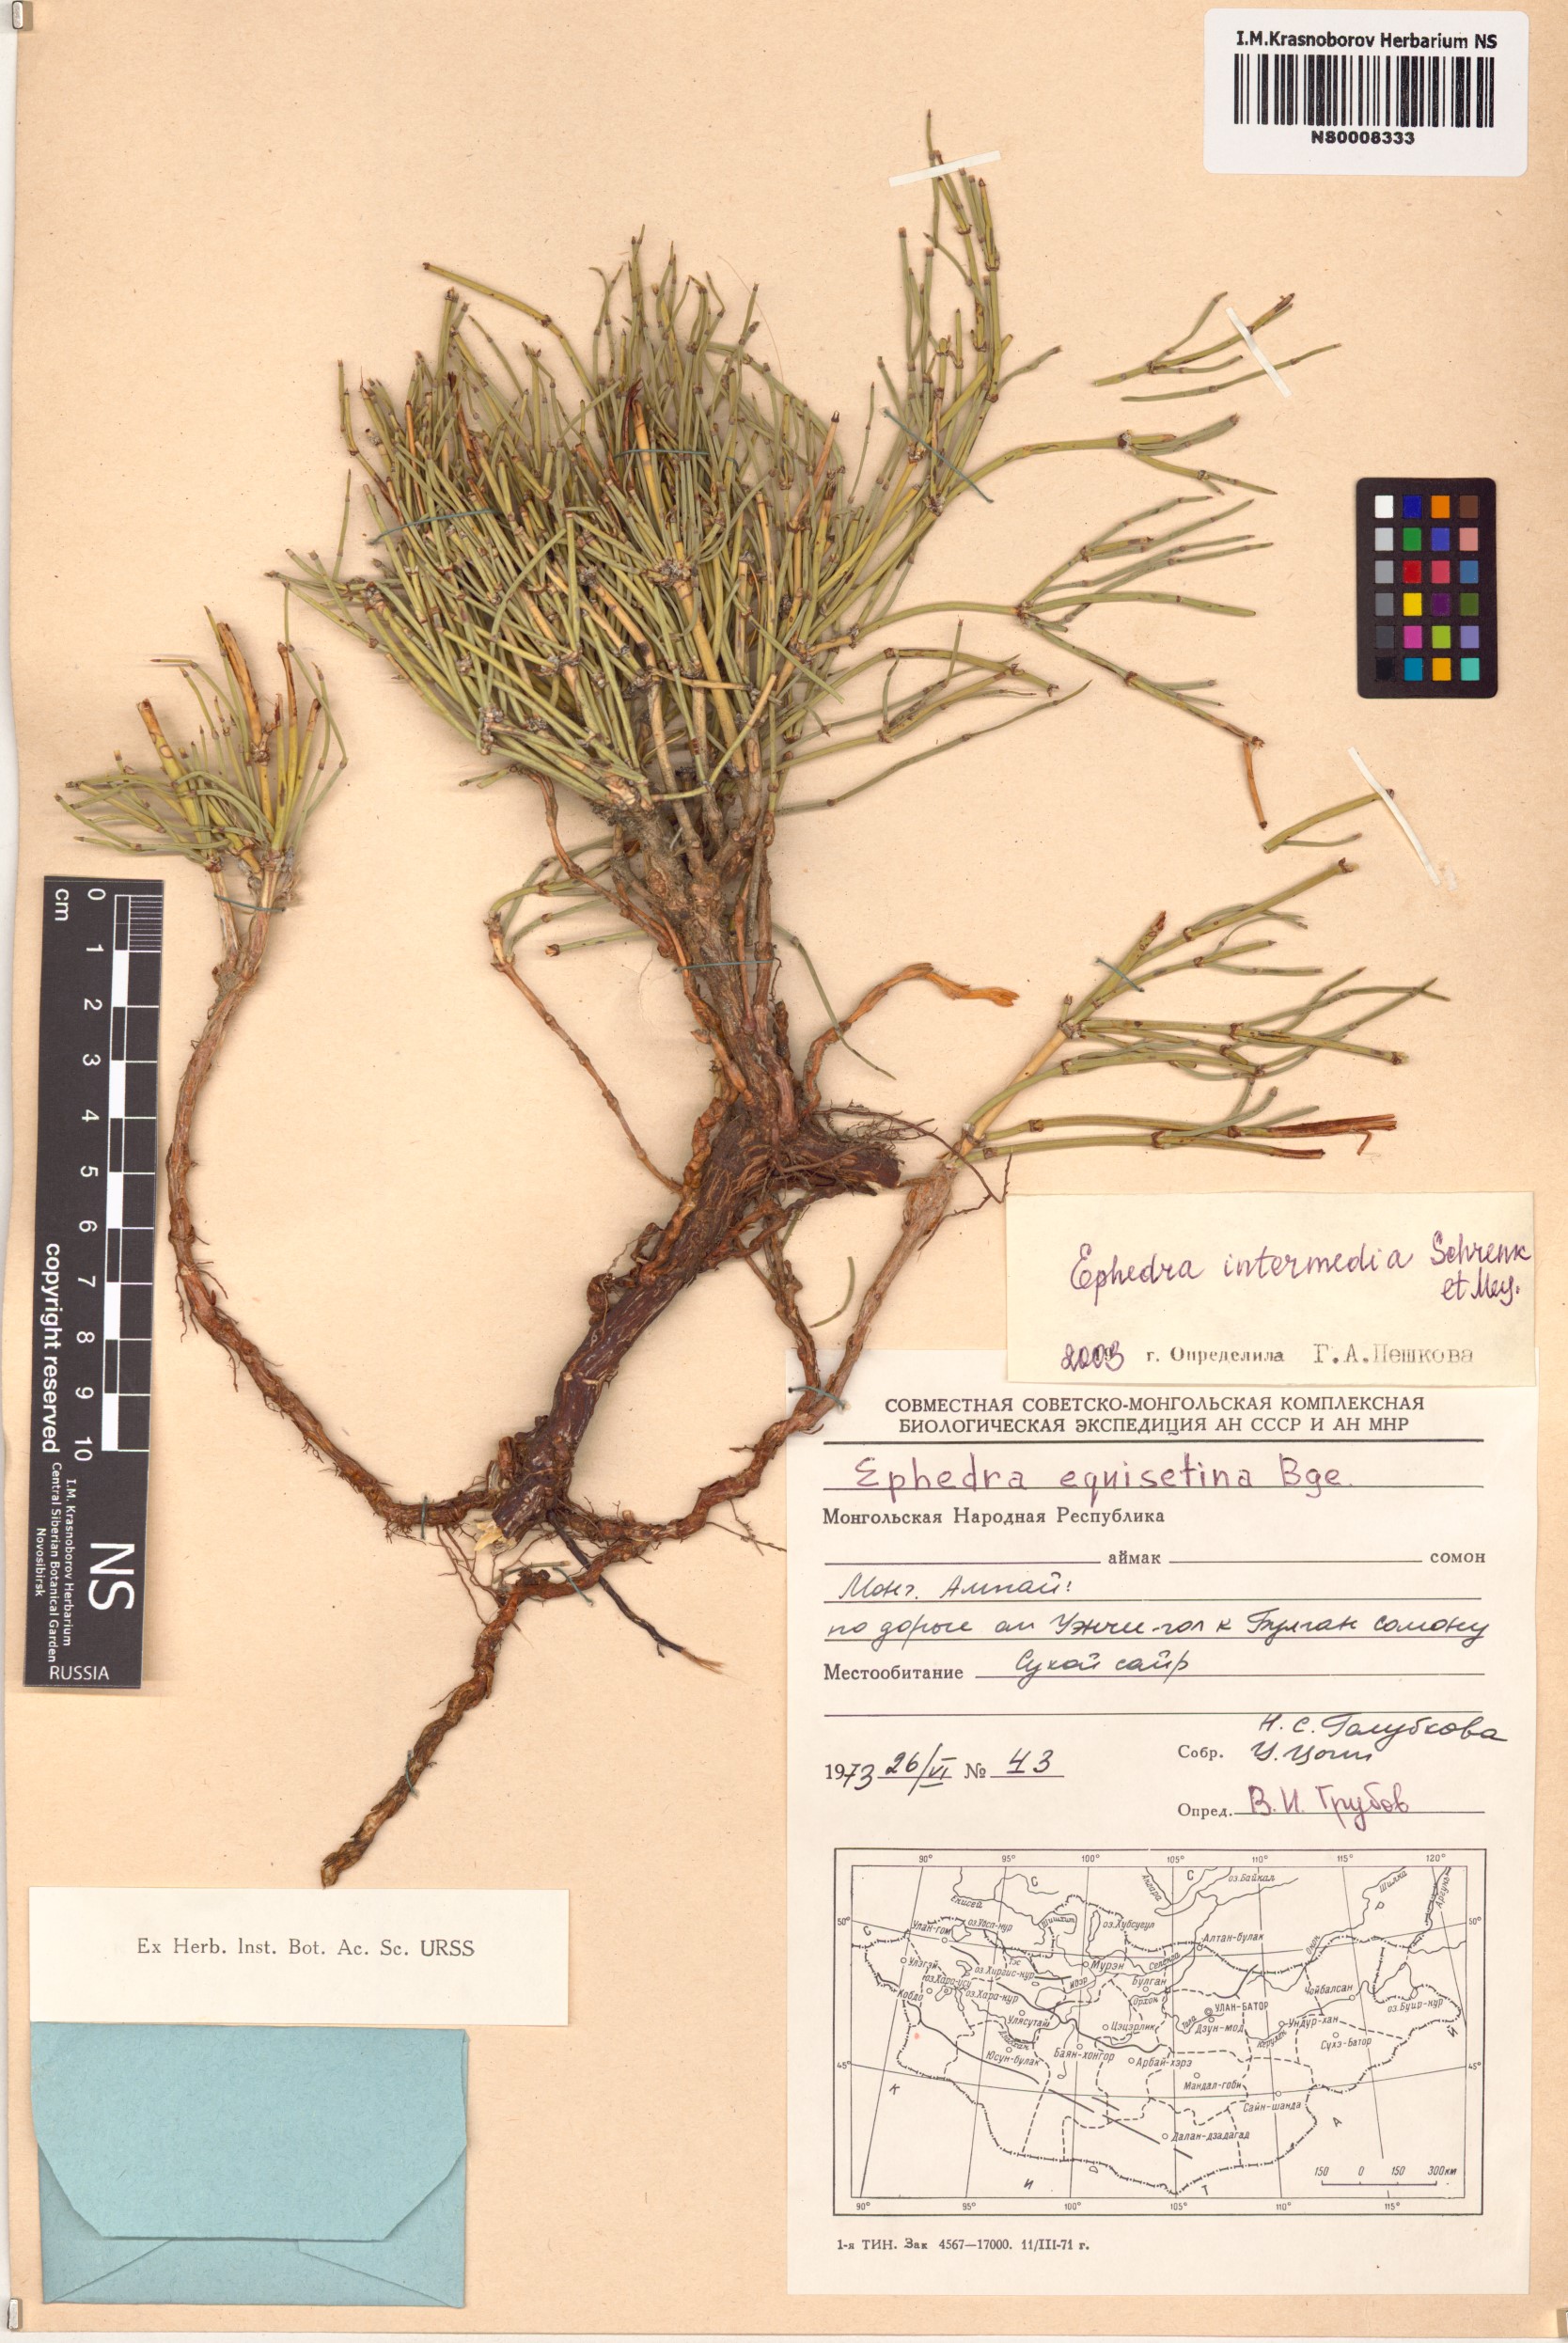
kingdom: Plantae
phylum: Tracheophyta
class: Gnetopsida
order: Ephedrales
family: Ephedraceae
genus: Ephedra
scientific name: Ephedra intermedia
